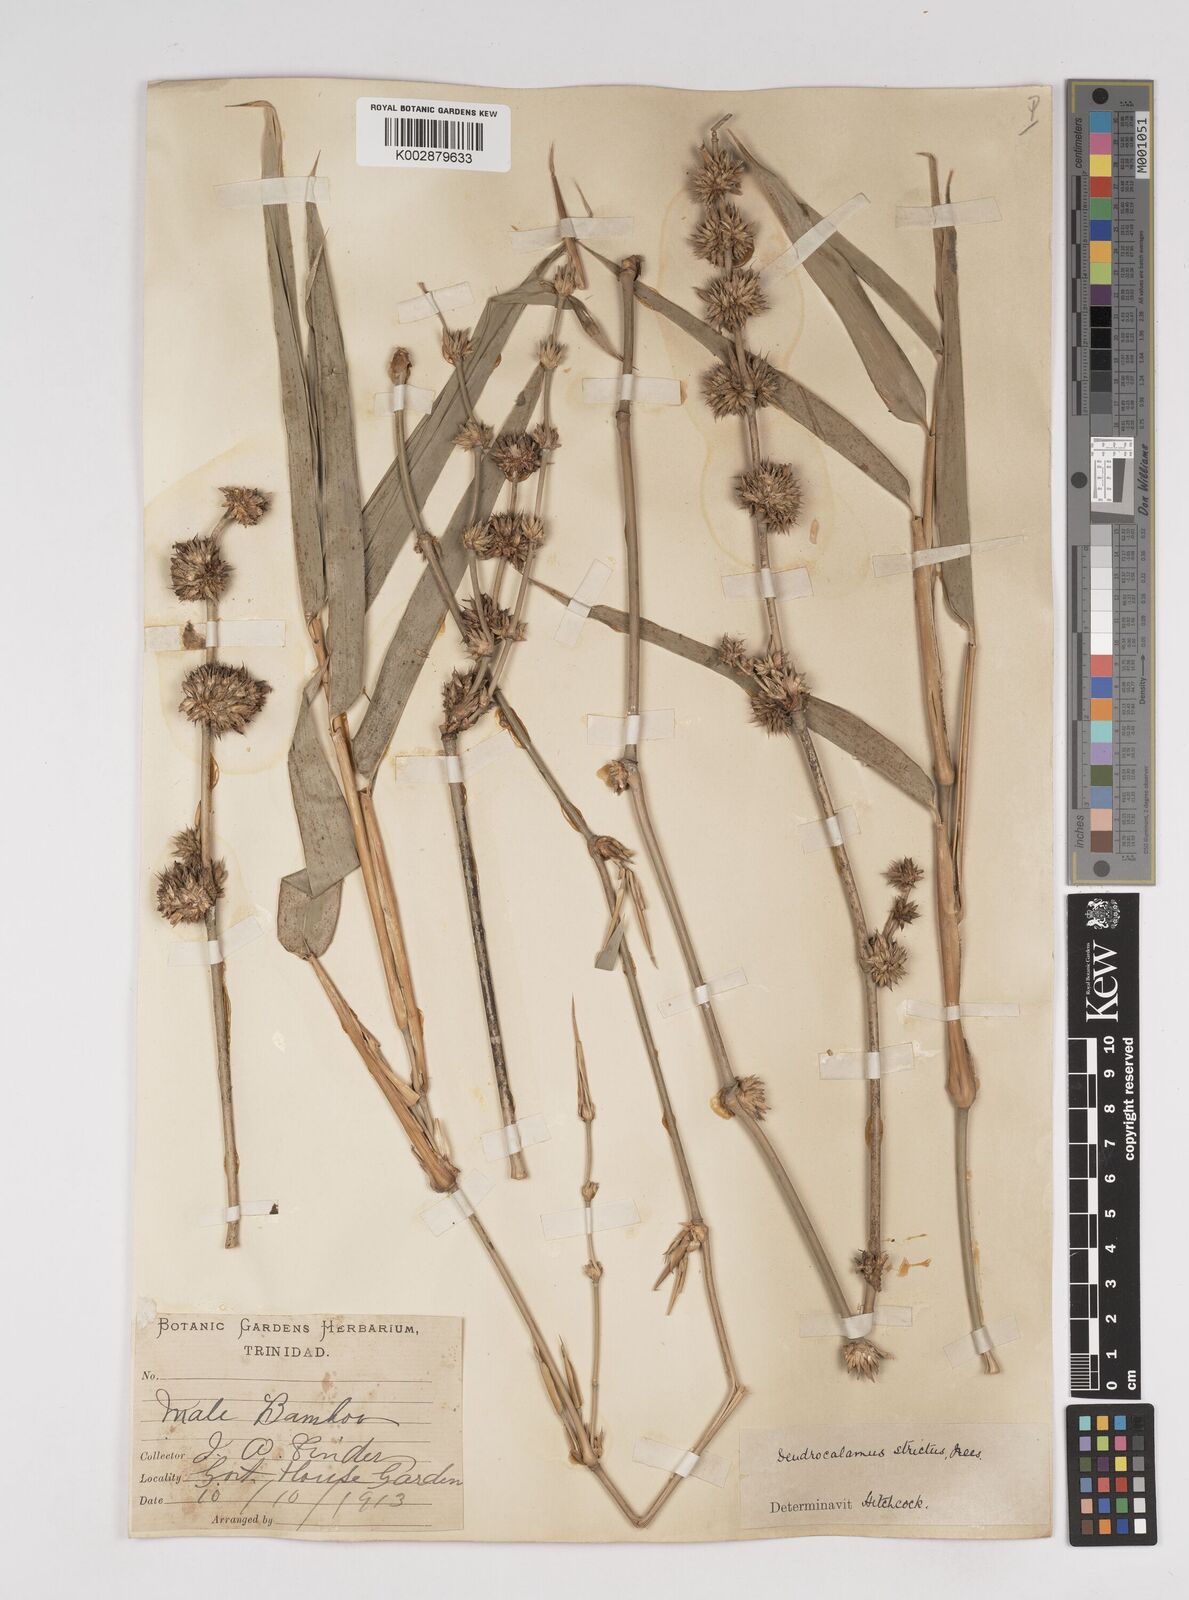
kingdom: Plantae
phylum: Tracheophyta
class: Liliopsida
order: Poales
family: Poaceae
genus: Dendrocalamus
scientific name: Dendrocalamus strictus
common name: Male bamboo
